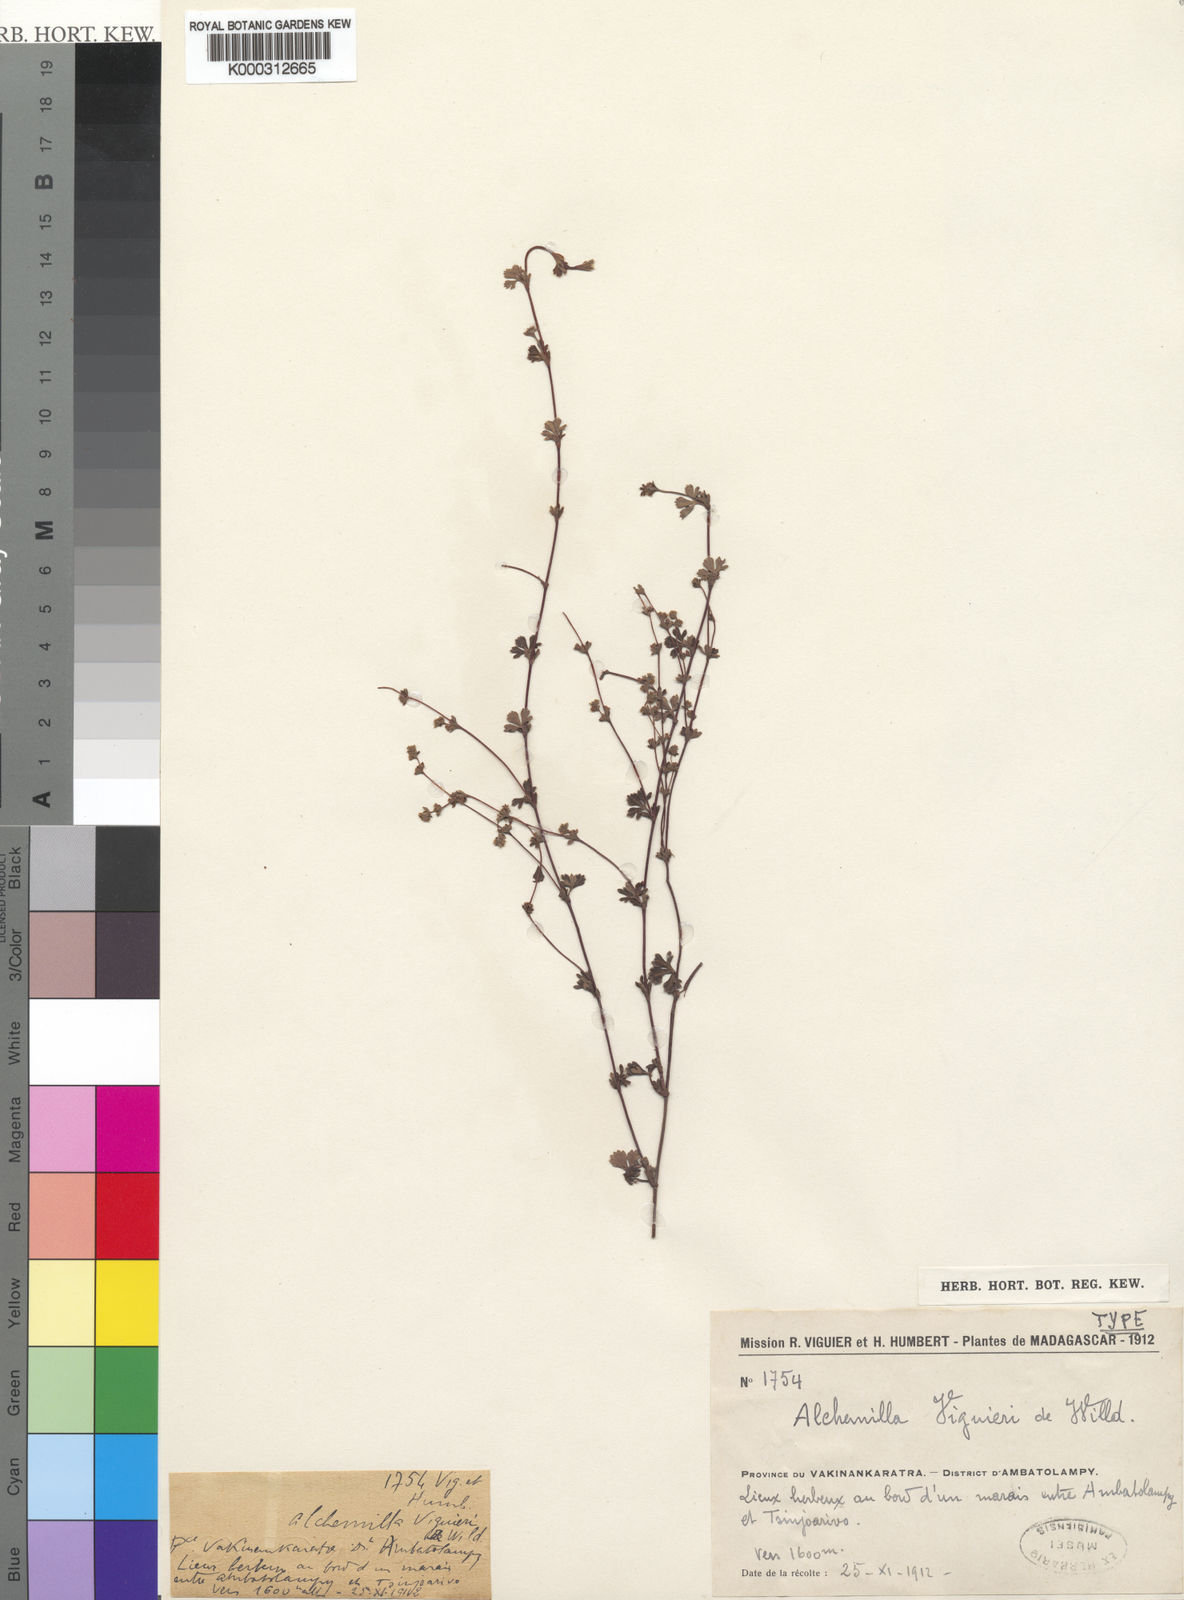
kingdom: Plantae
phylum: Tracheophyta
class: Magnoliopsida
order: Rosales
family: Rosaceae
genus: Alchemilla
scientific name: Alchemilla viguieri
